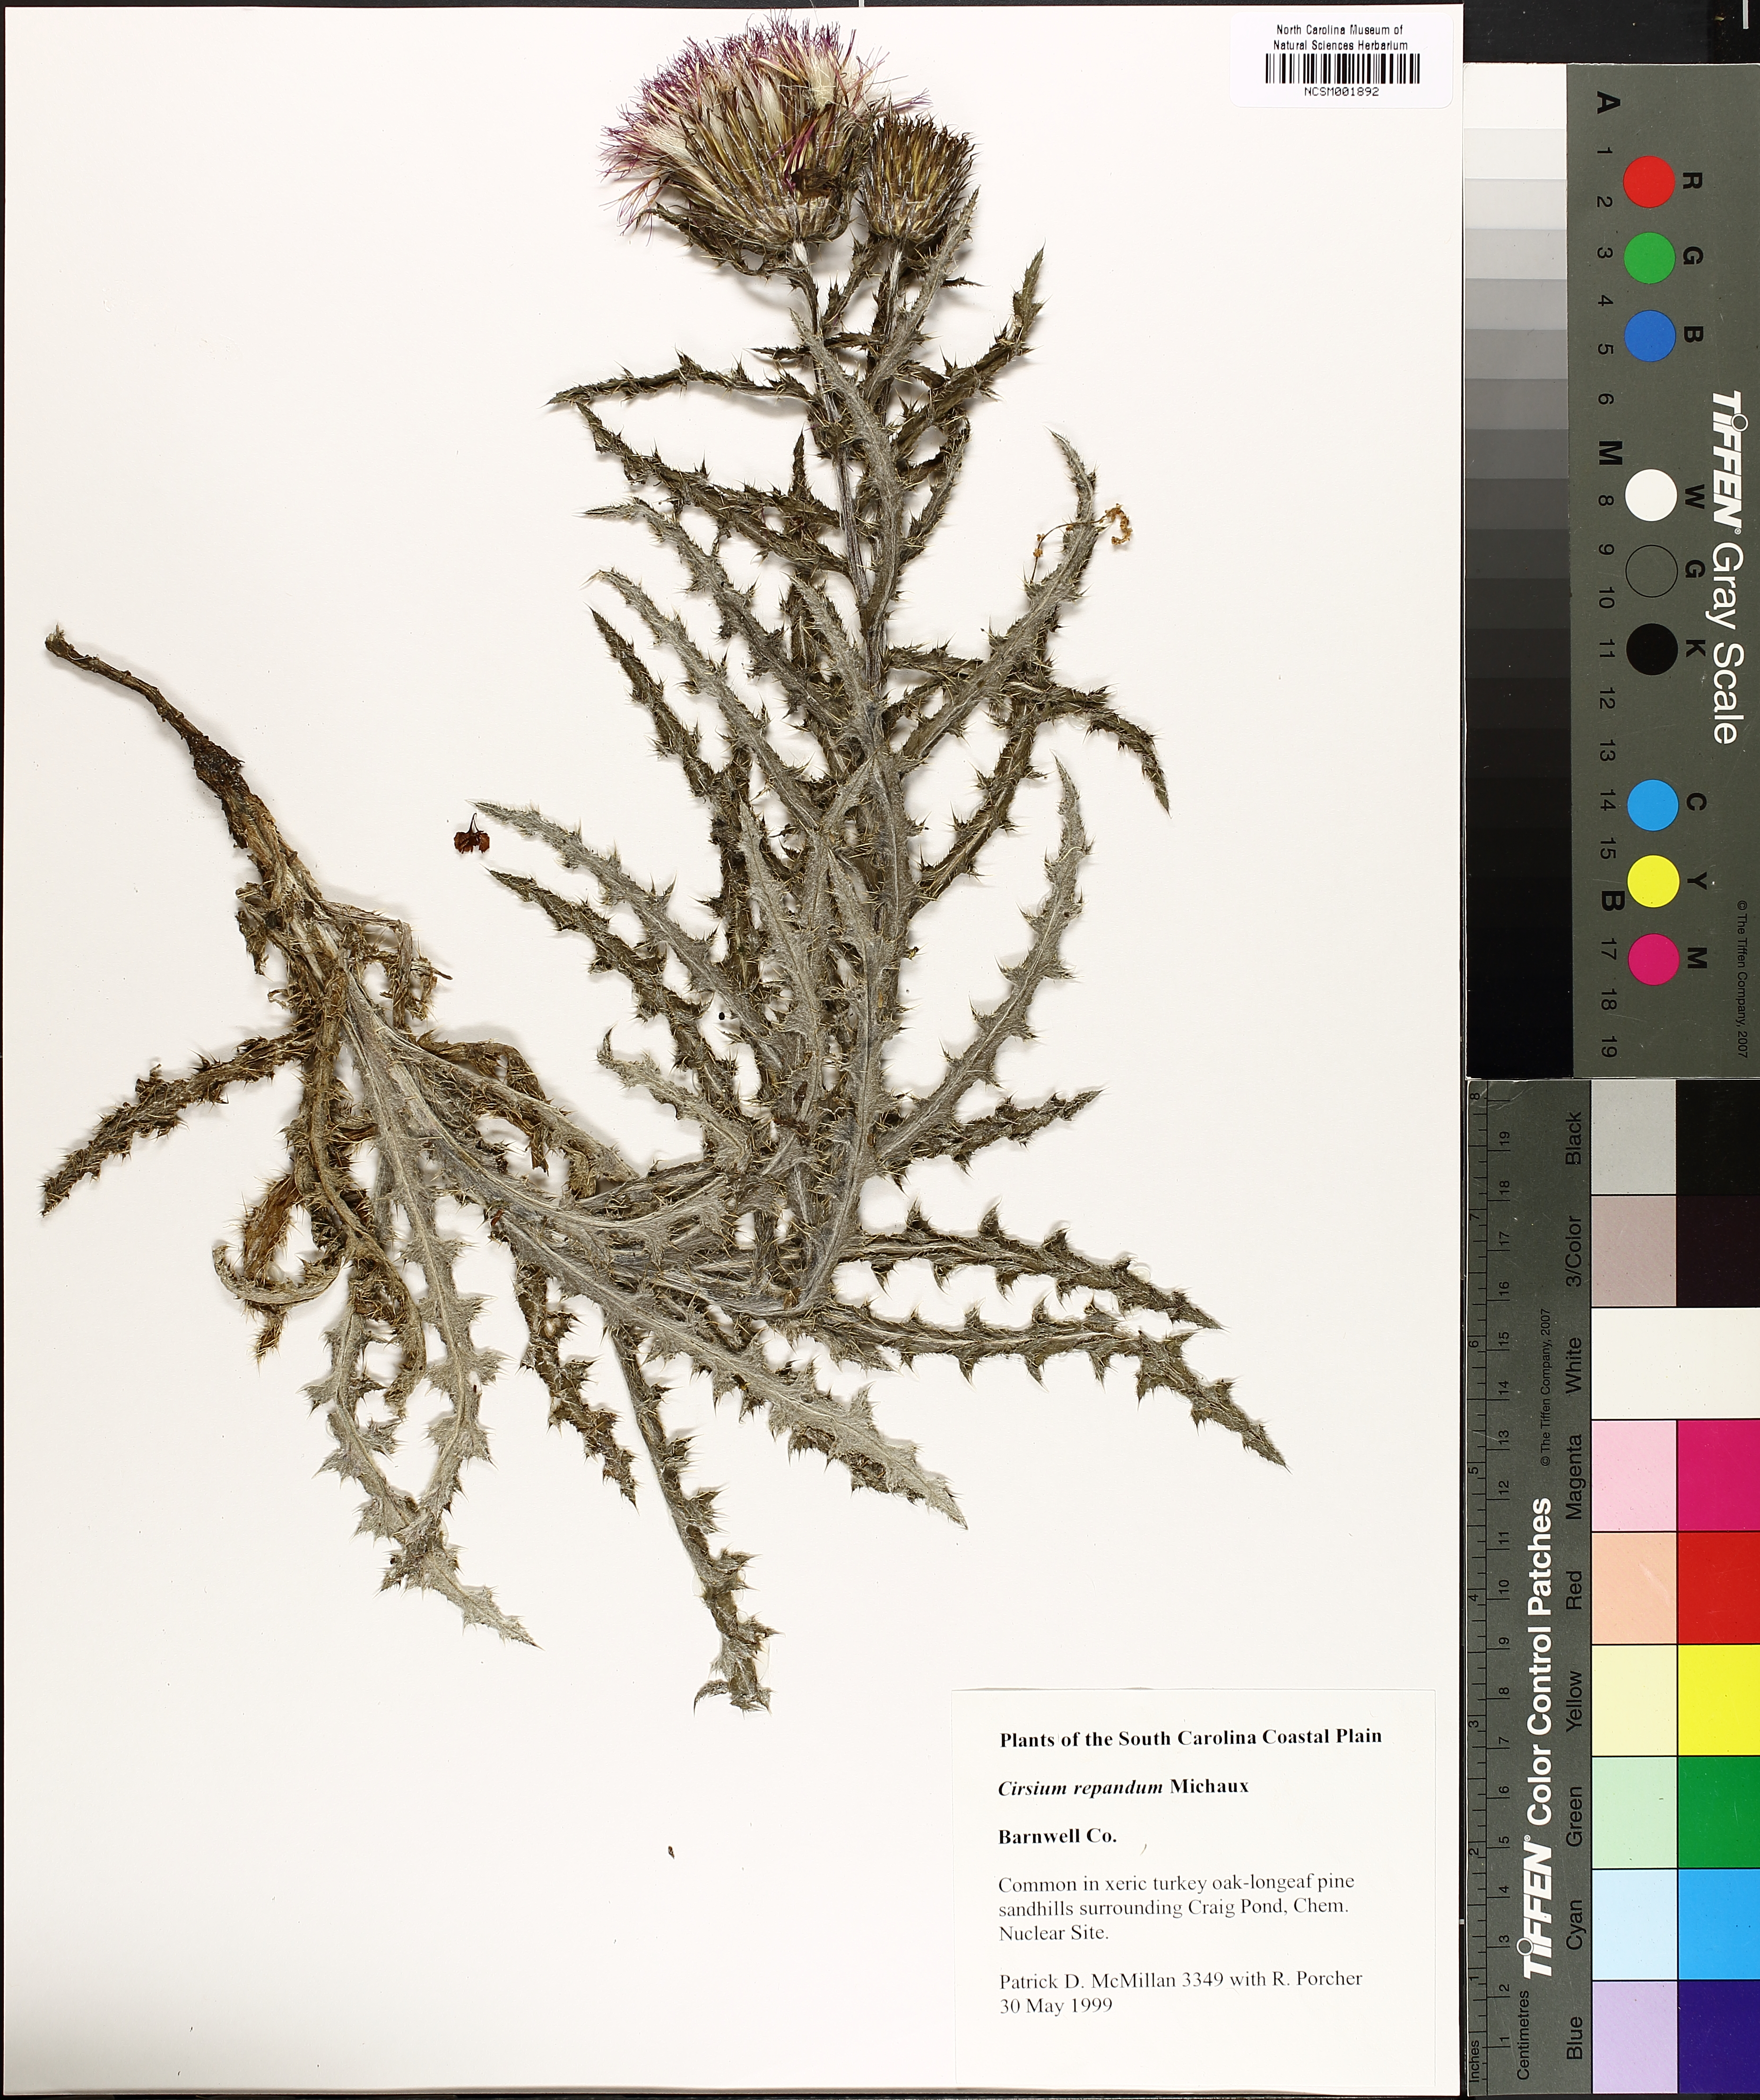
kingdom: Plantae
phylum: Tracheophyta
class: Magnoliopsida
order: Asterales
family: Asteraceae
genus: Cirsium
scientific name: Cirsium repandum
